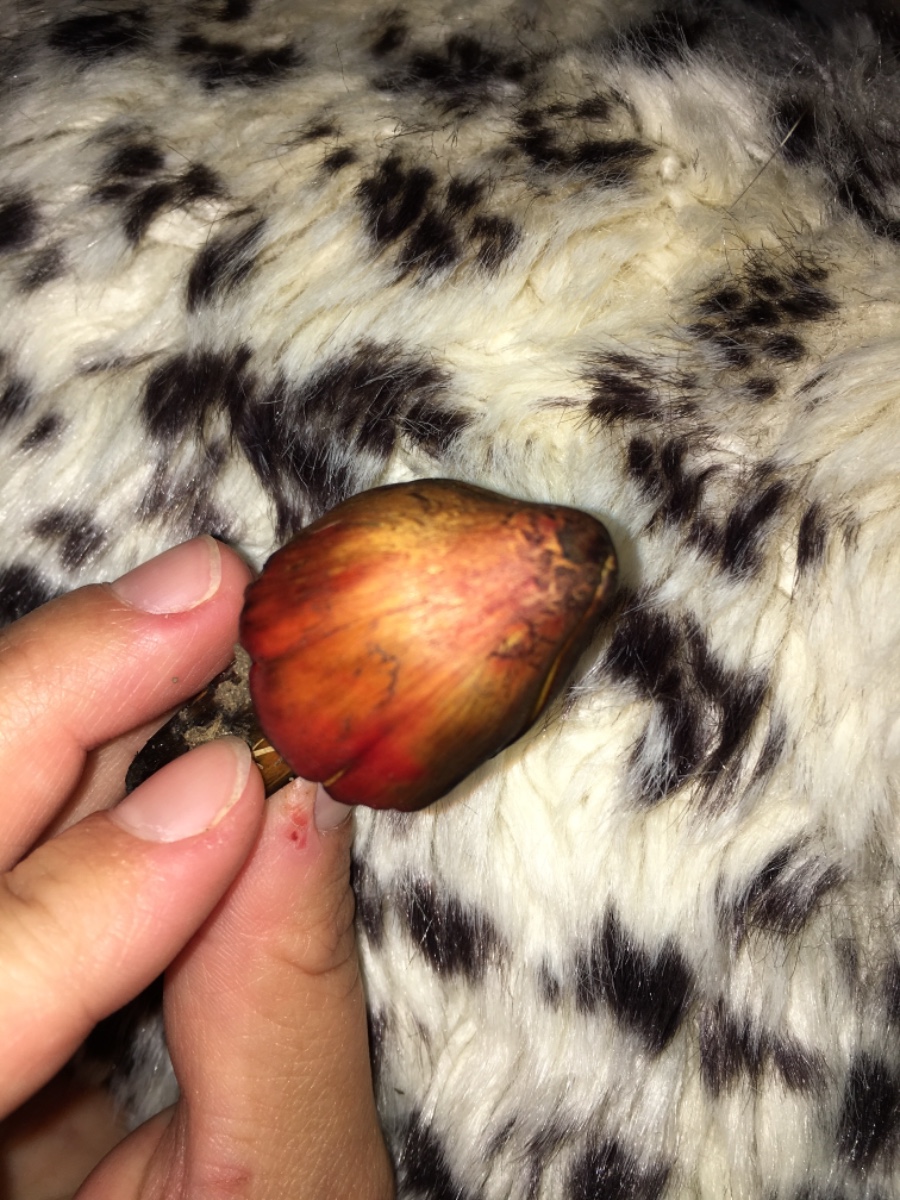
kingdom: Fungi
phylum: Basidiomycota
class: Agaricomycetes
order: Agaricales
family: Hygrophoraceae
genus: Hygrocybe
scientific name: Hygrocybe conica
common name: kegle-vokshat
